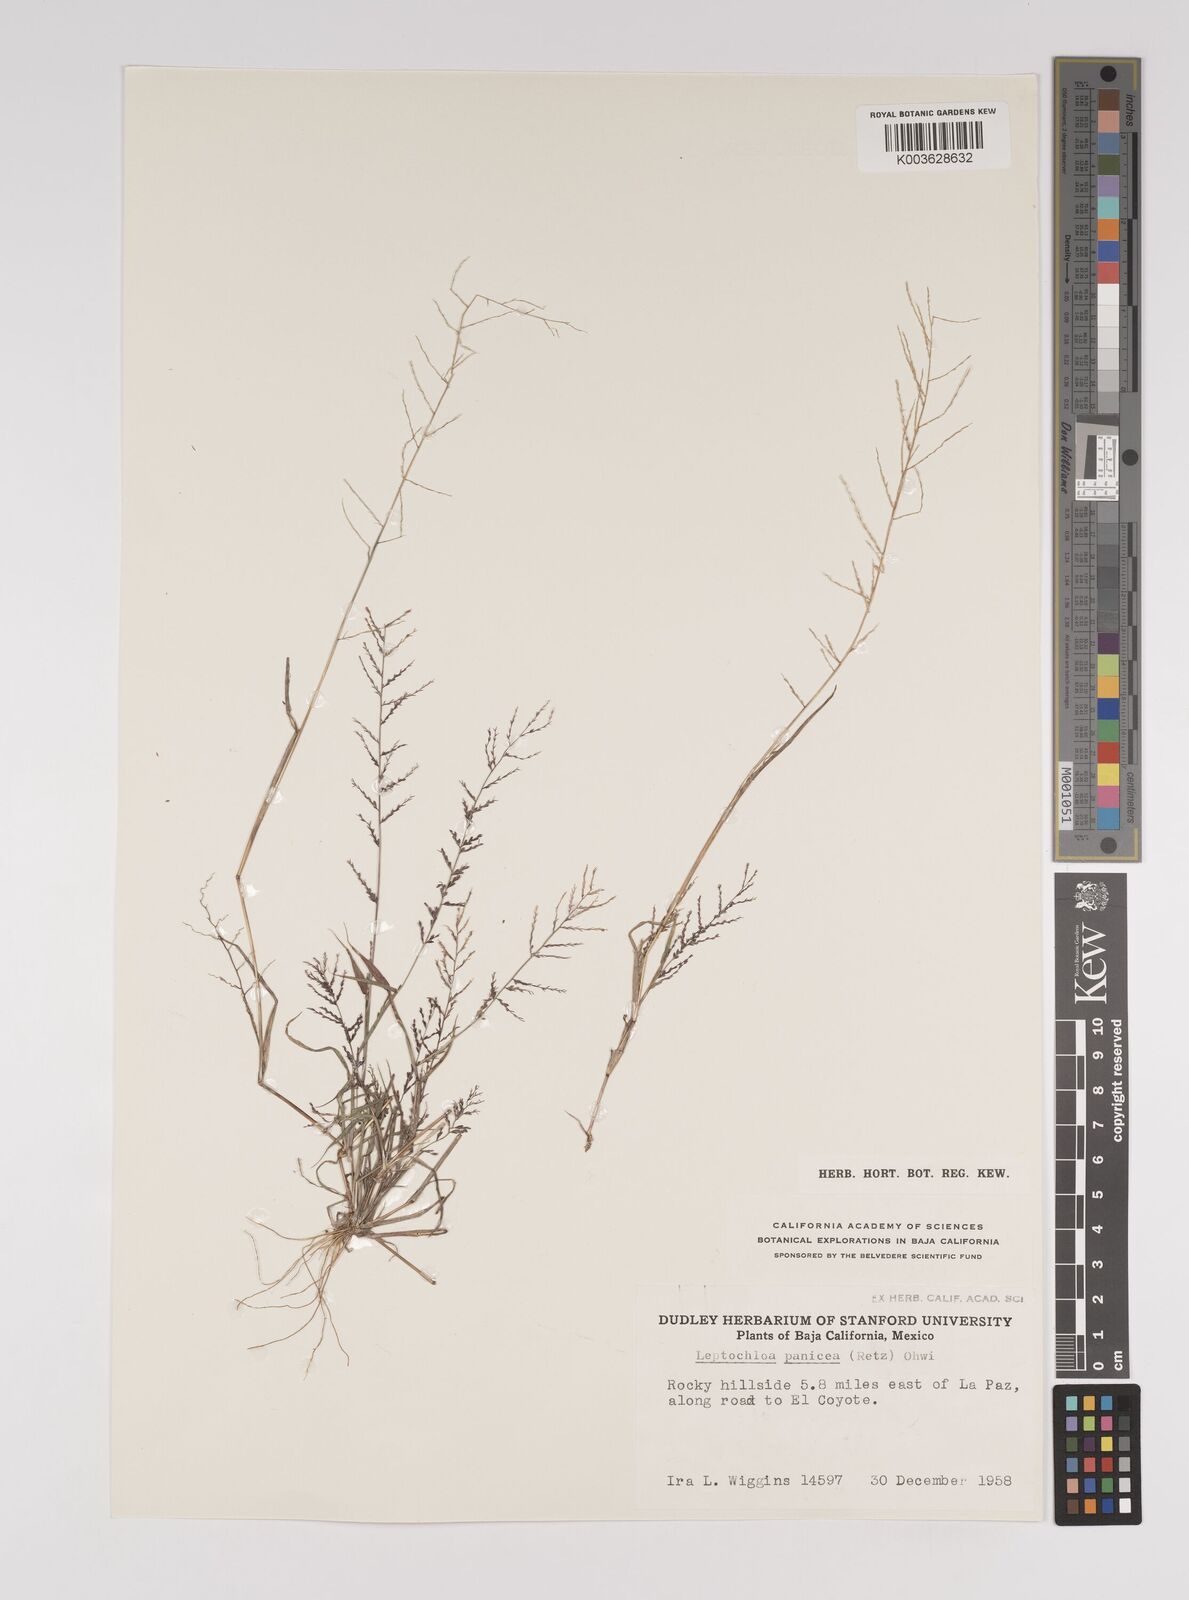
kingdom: Plantae
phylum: Tracheophyta
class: Liliopsida
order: Poales
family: Poaceae
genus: Leptochloa
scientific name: Leptochloa panicea
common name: Mucronate sprangletop
